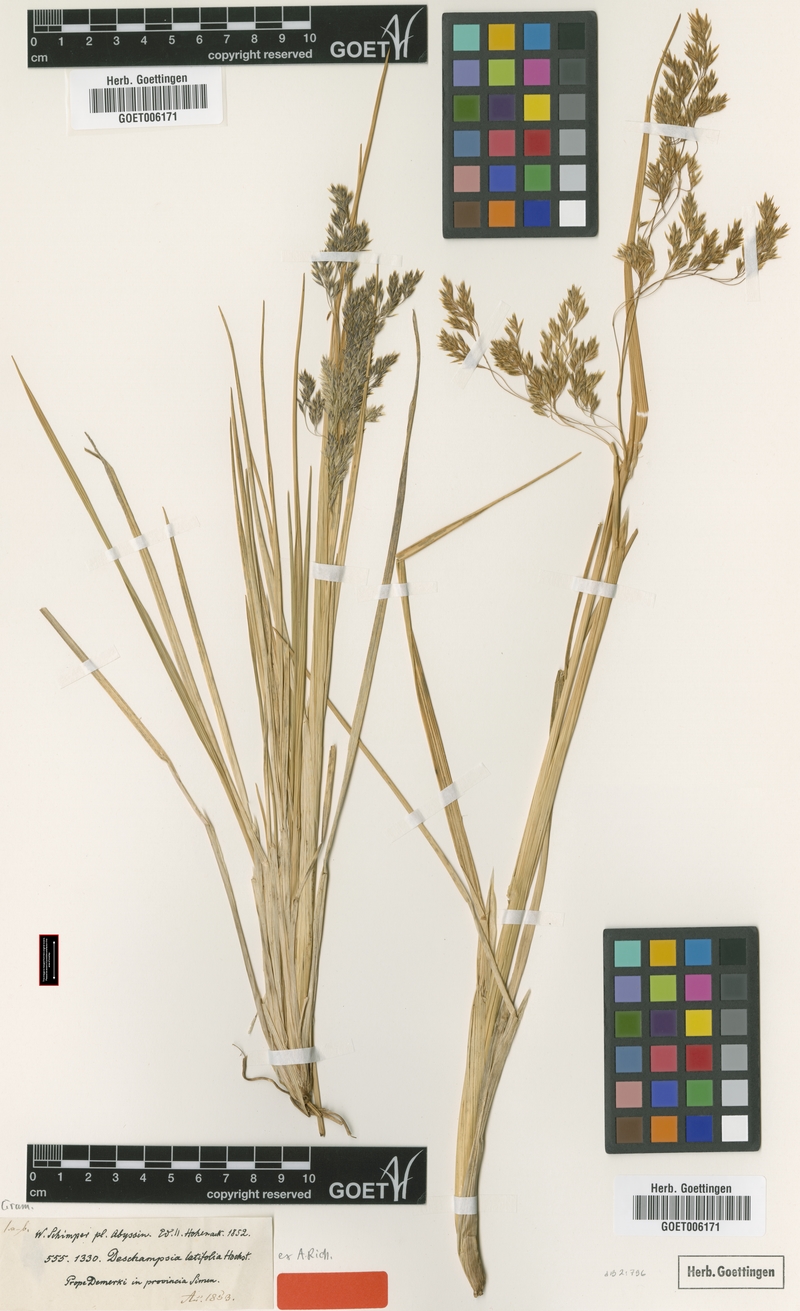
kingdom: Plantae
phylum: Tracheophyta
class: Liliopsida
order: Poales
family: Poaceae
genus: Deschampsia
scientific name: Deschampsia cespitosa
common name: Tufted hair-grass
